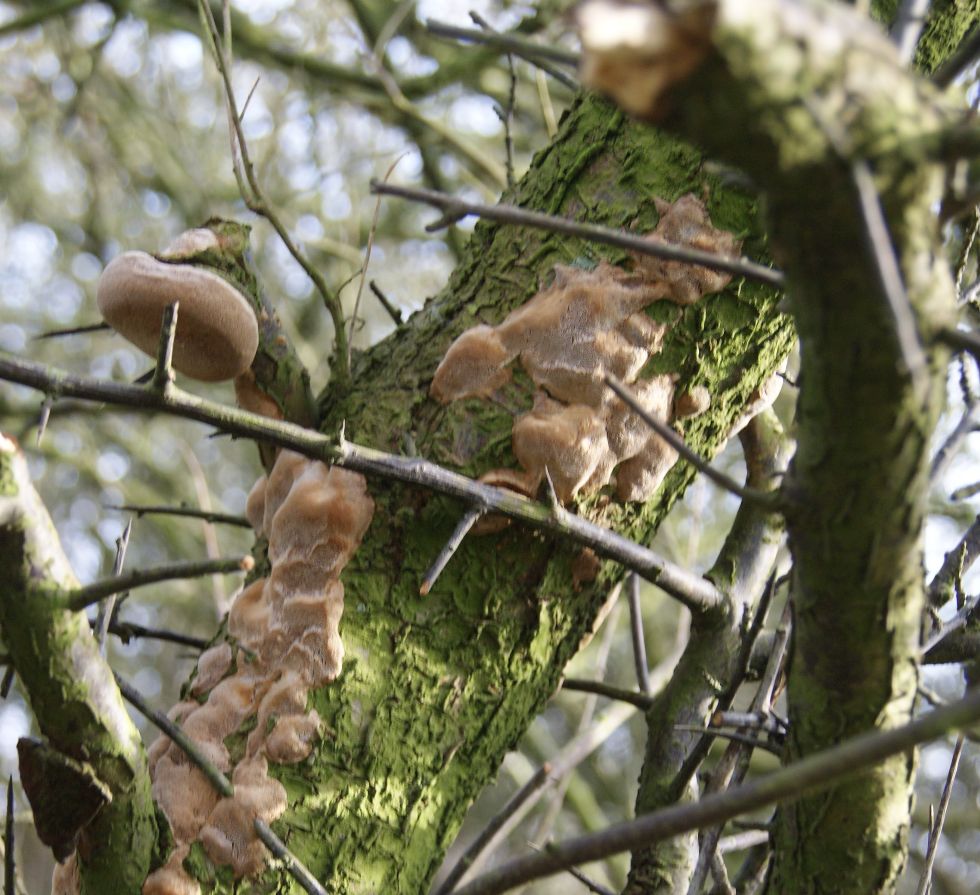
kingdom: Fungi
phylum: Basidiomycota
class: Agaricomycetes
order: Hymenochaetales
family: Hymenochaetaceae
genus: Phellinus
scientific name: Phellinus pomaceus
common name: blomme-ildporesvamp
